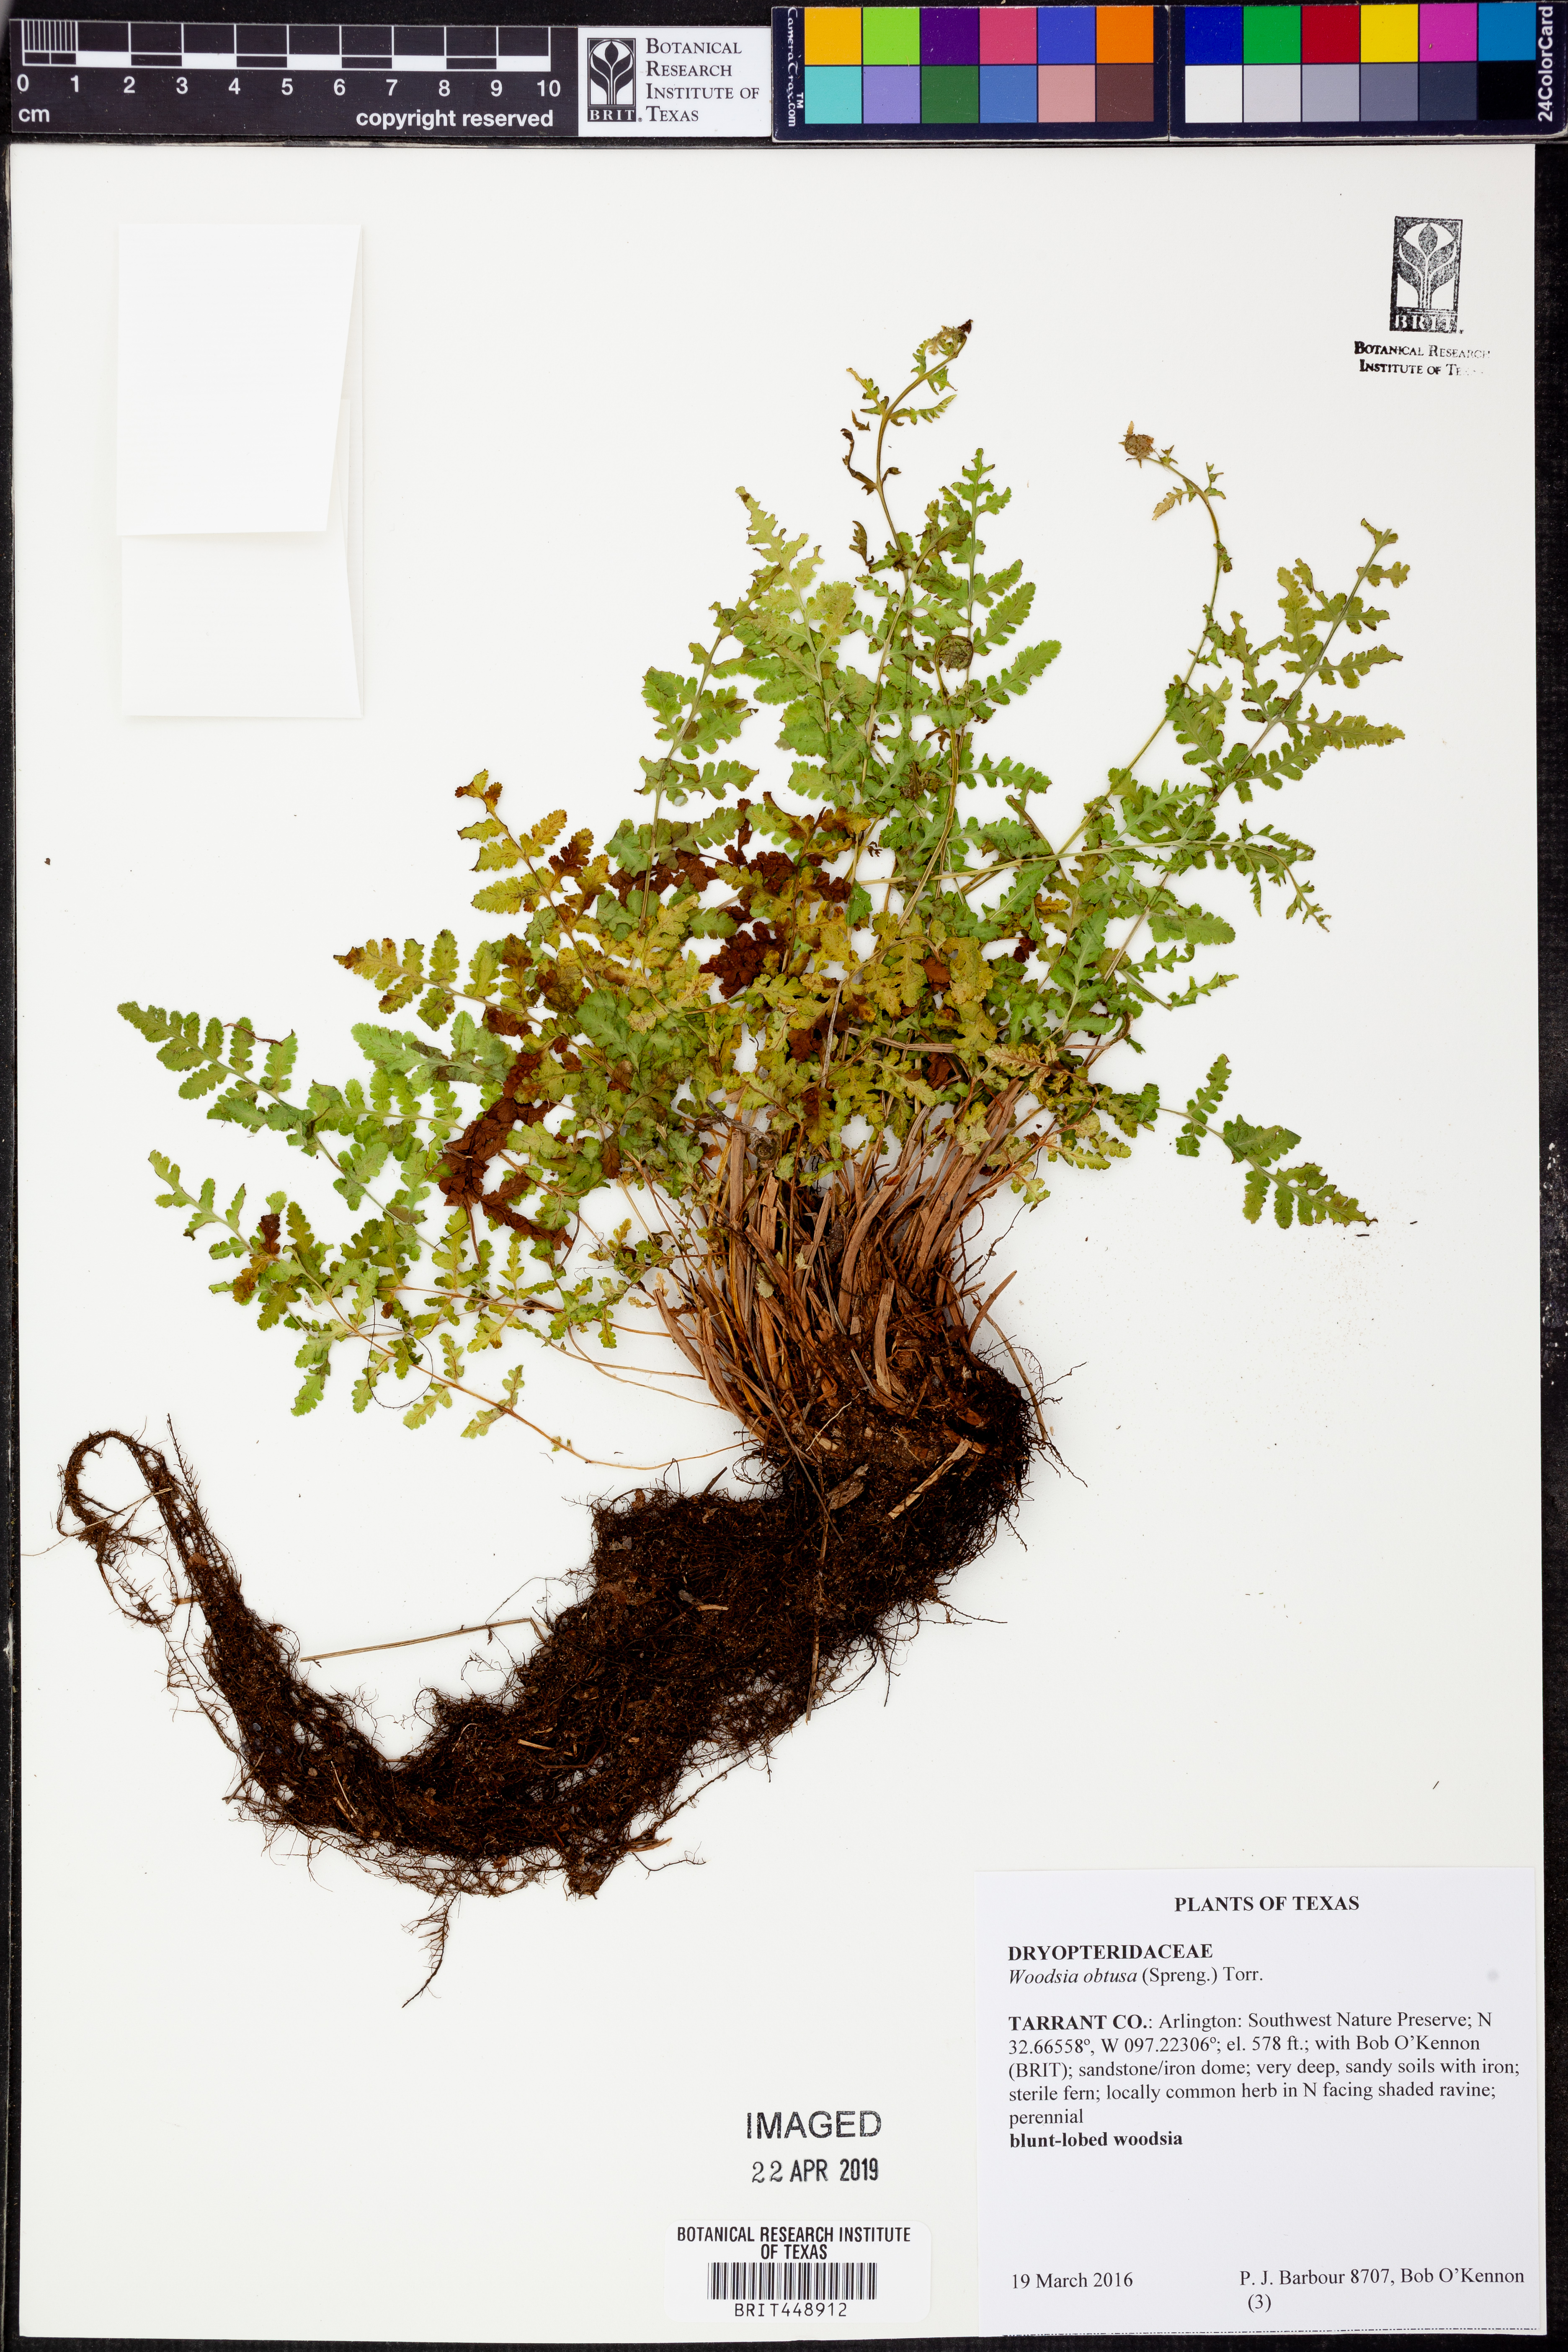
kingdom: Plantae
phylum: Tracheophyta
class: Polypodiopsida
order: Polypodiales
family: Woodsiaceae
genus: Physematium
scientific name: Physematium obtusum
